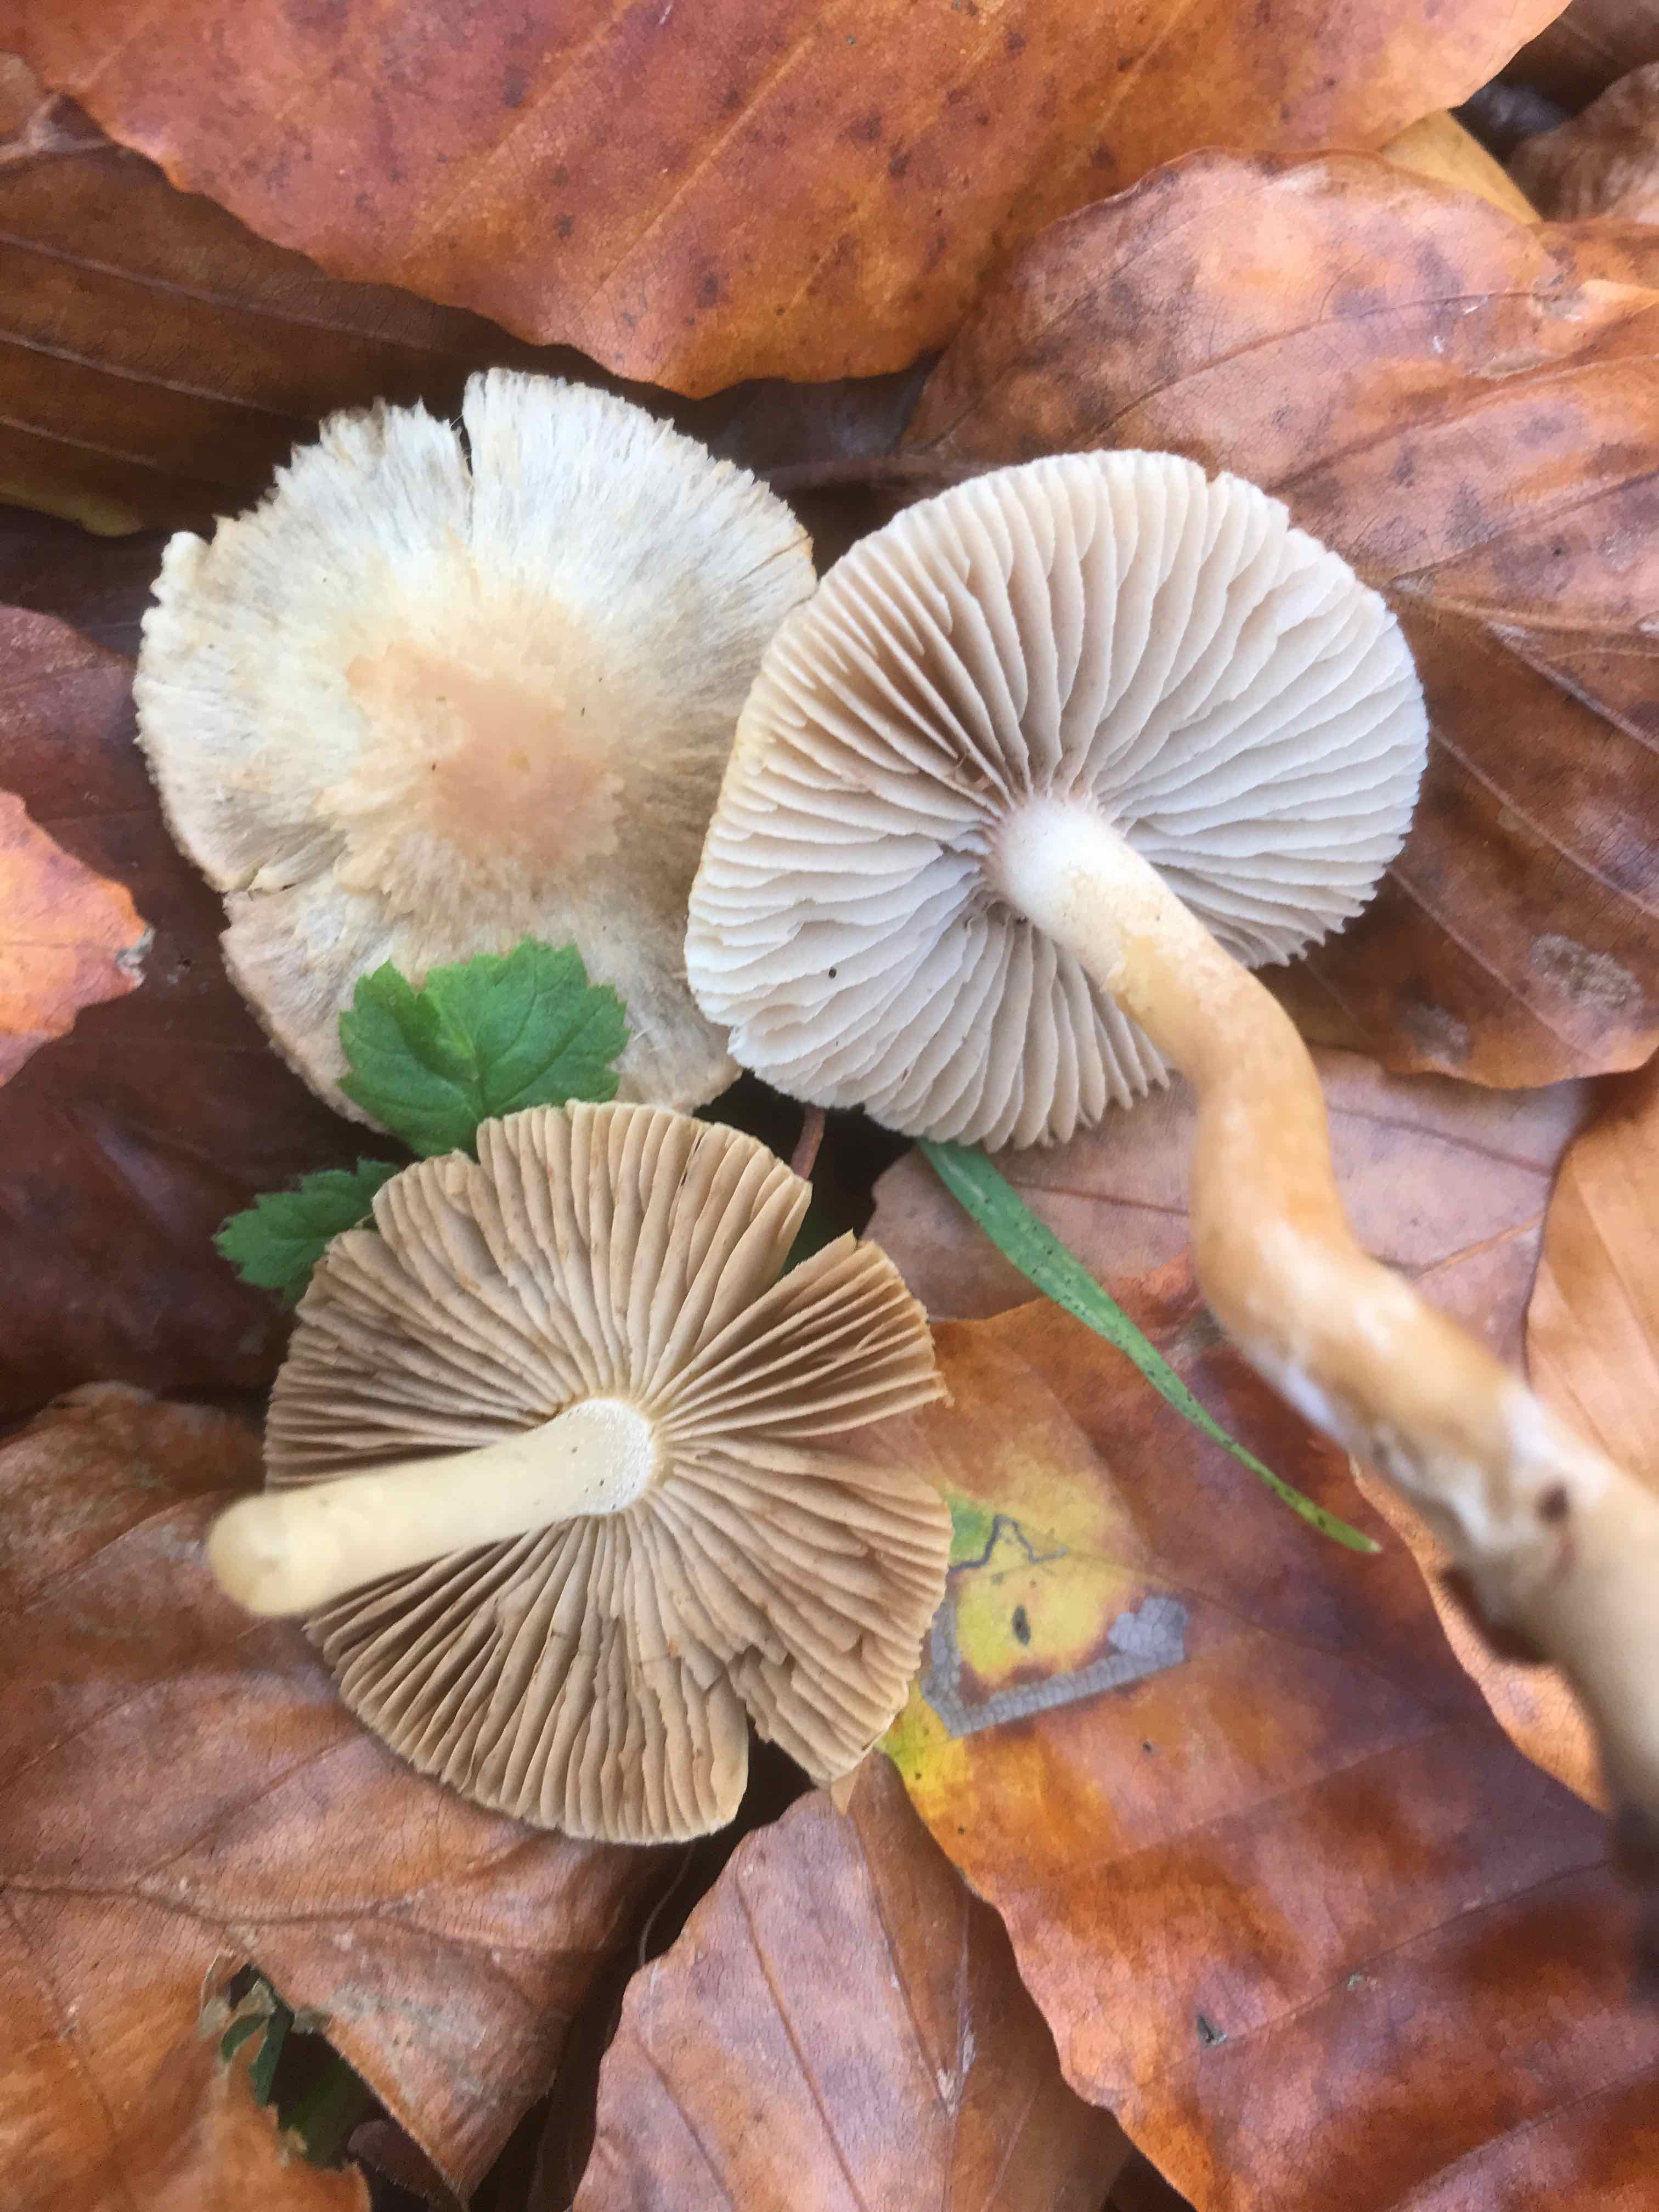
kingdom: Fungi
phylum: Basidiomycota
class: Agaricomycetes
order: Agaricales
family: Inocybaceae
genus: Inocybe
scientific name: Inocybe
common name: trævlhat
